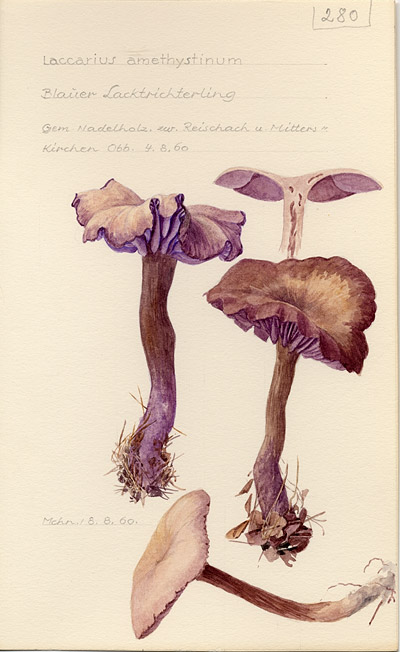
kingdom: Fungi
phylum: Basidiomycota
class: Agaricomycetes
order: Agaricales
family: Hydnangiaceae
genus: Laccaria
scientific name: Laccaria laccata
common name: Deceiver
